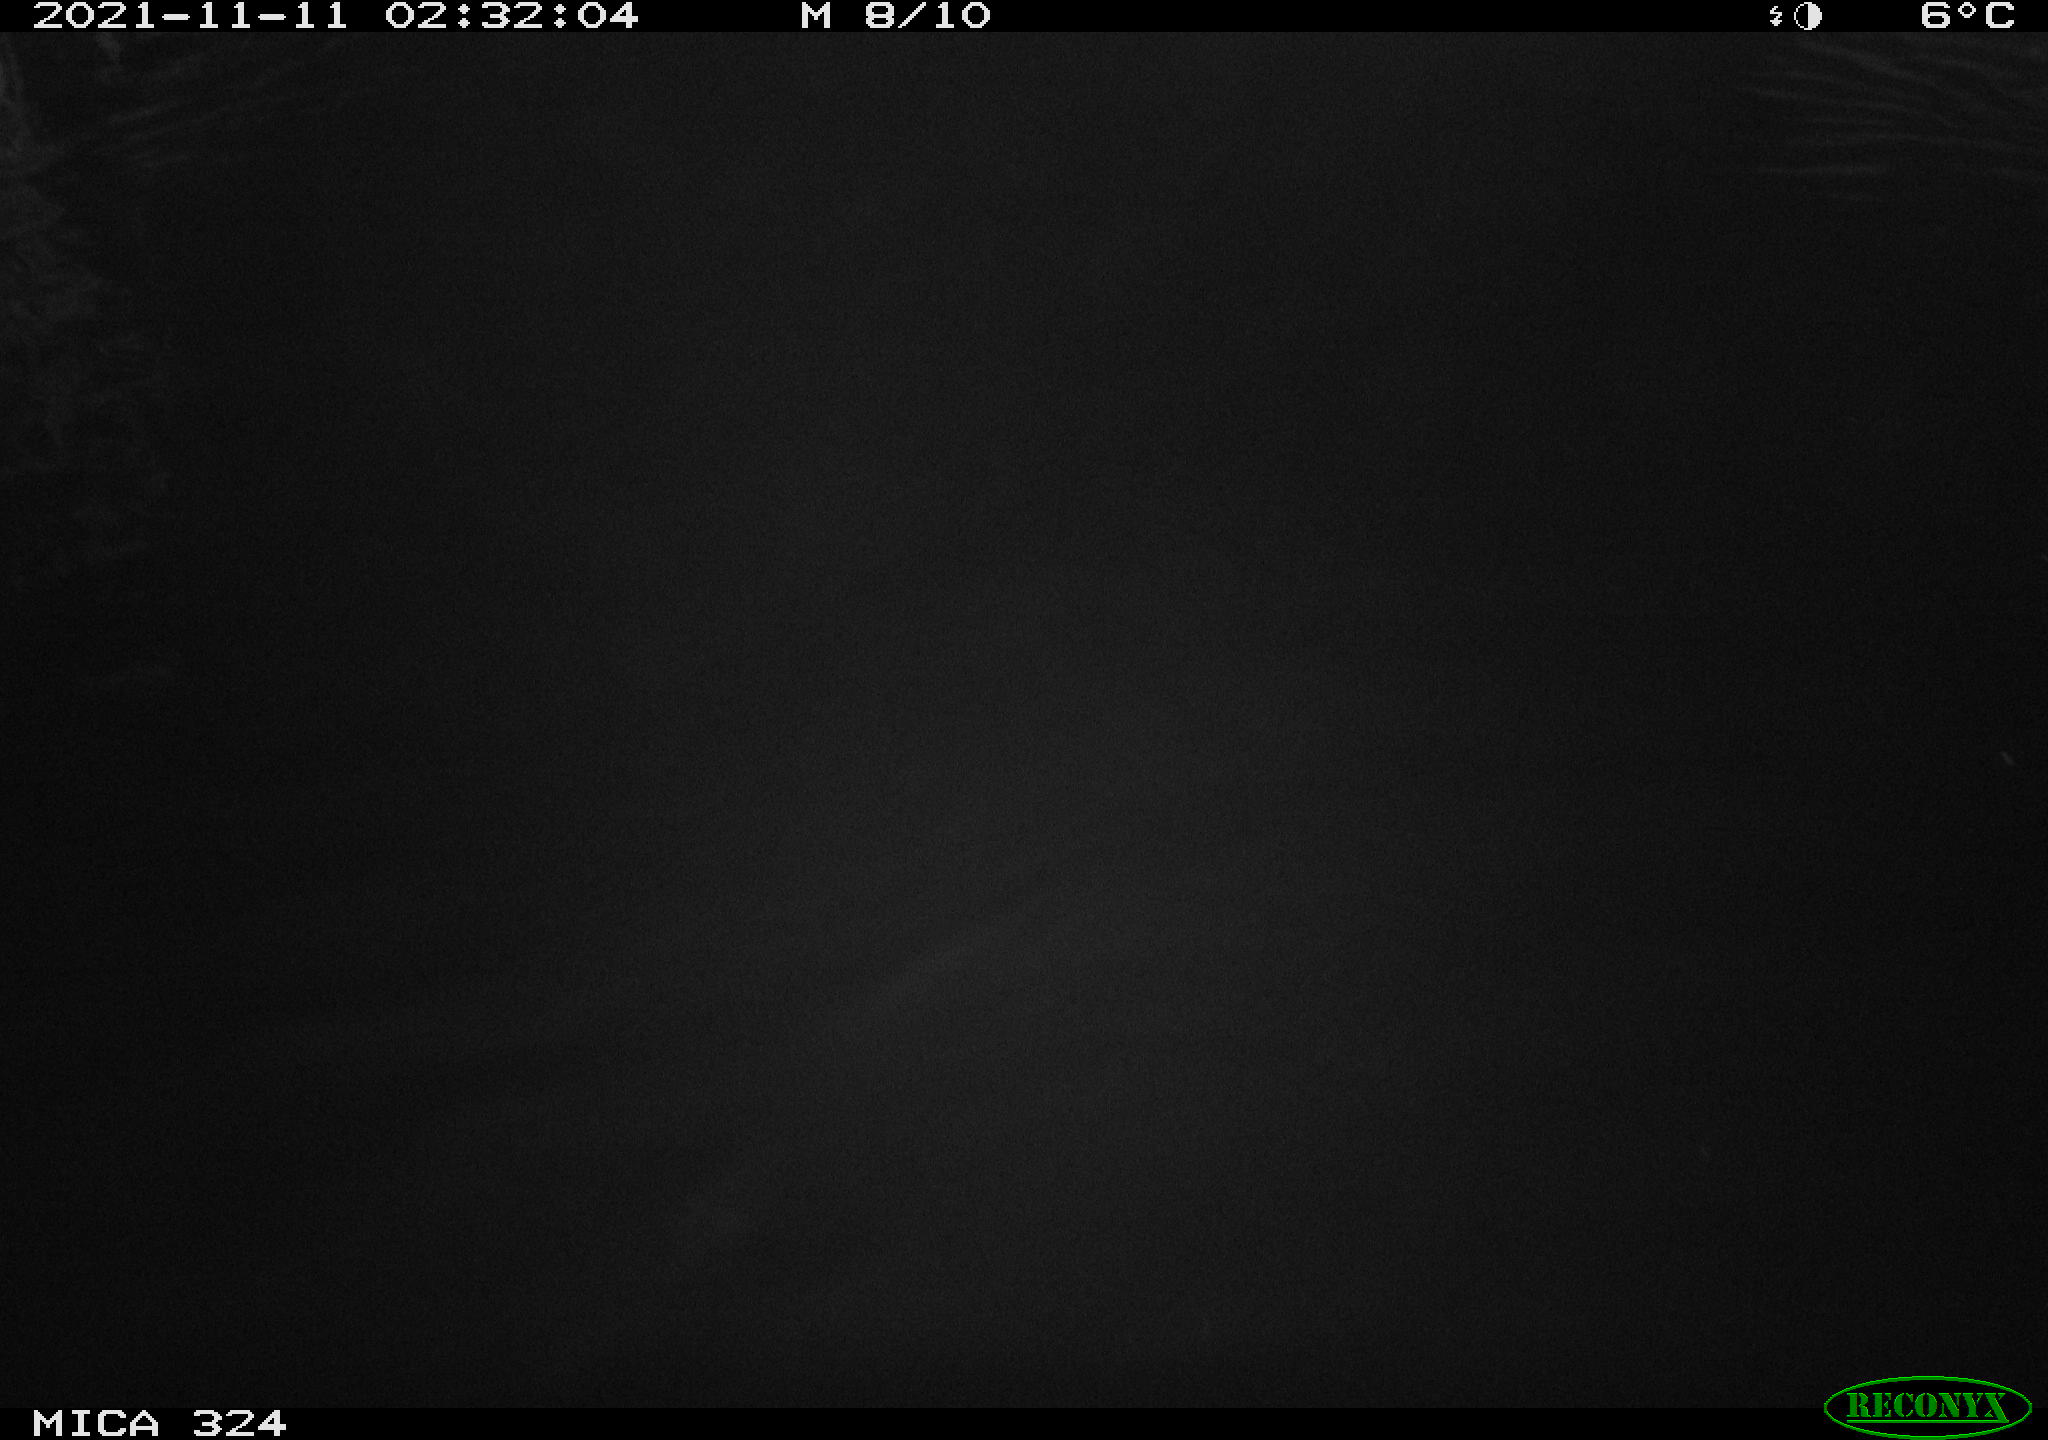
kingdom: Animalia
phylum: Chordata
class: Mammalia
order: Rodentia
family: Cricetidae
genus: Ondatra
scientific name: Ondatra zibethicus
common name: Muskrat
